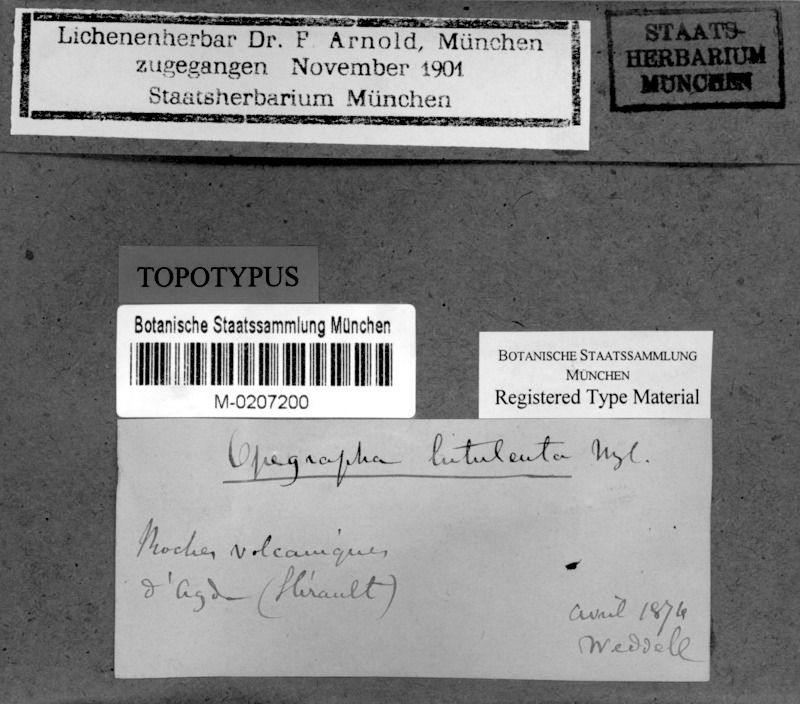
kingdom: Fungi
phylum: Ascomycota
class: Arthoniomycetes
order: Arthoniales
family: Lecanographaceae
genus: Alyxoria
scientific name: Alyxoria lutulenta
